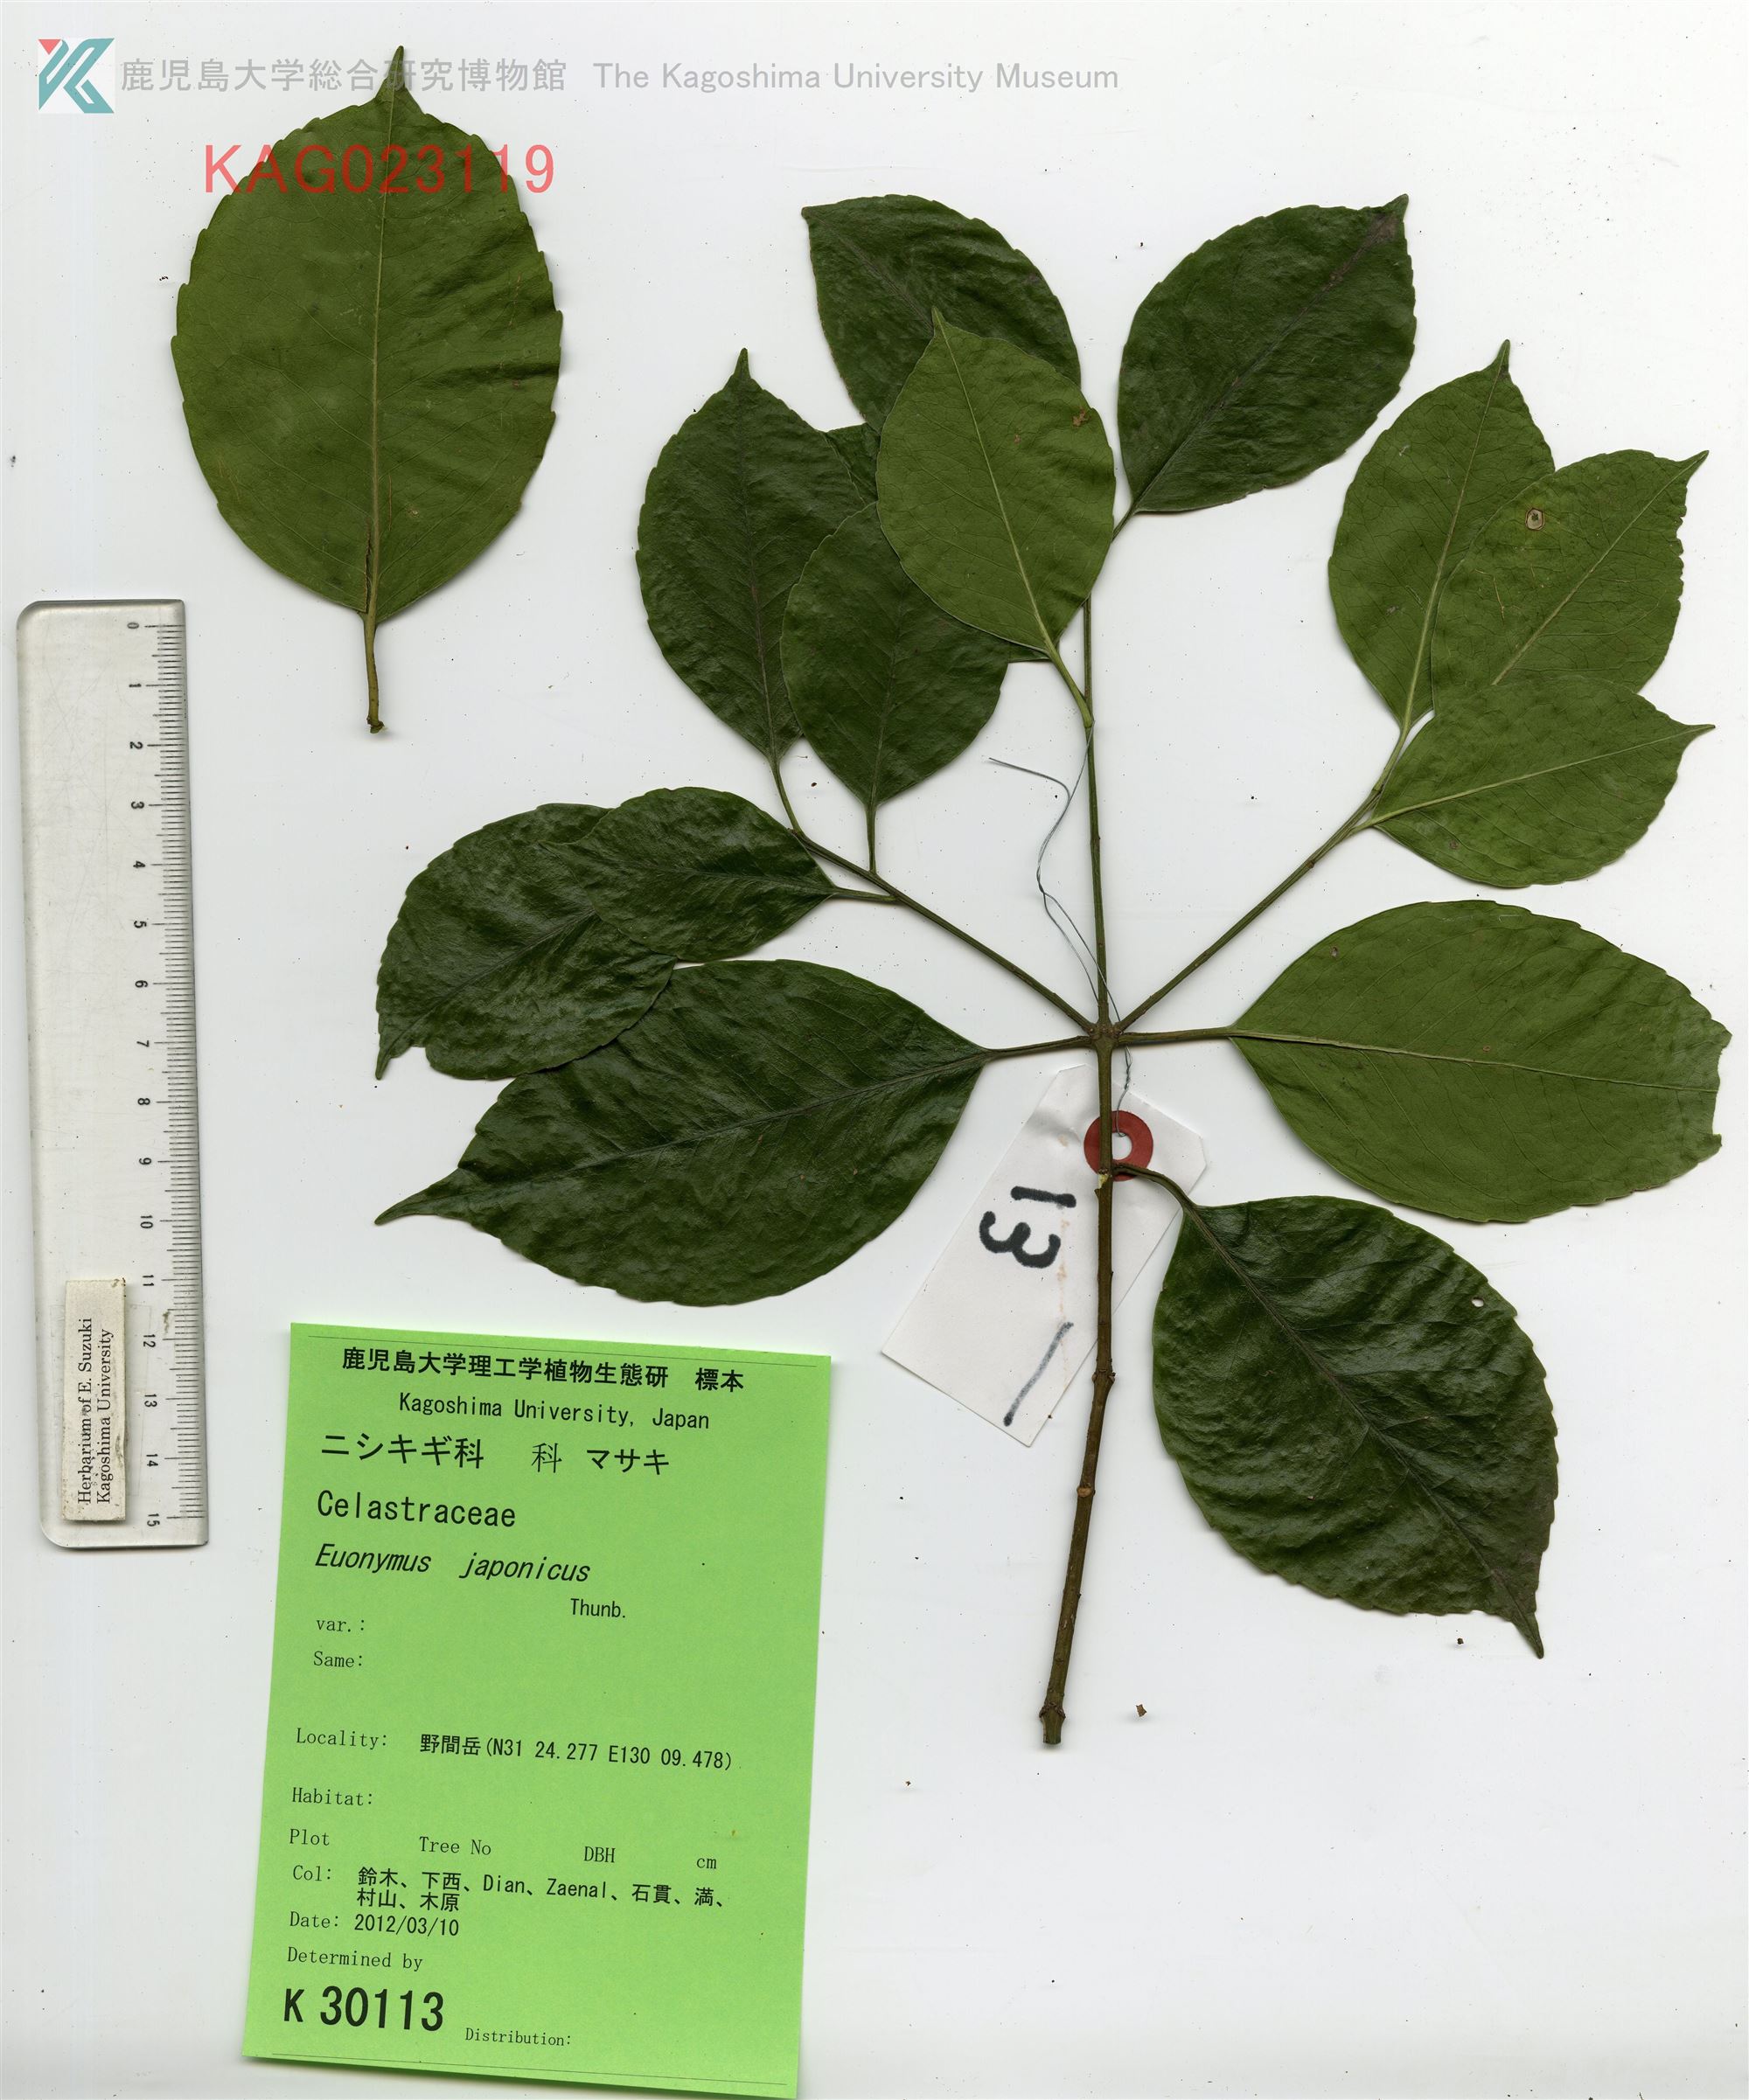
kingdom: Plantae
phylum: Tracheophyta
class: Magnoliopsida
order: Celastrales
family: Celastraceae
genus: Euonymus
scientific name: Euonymus chibae
